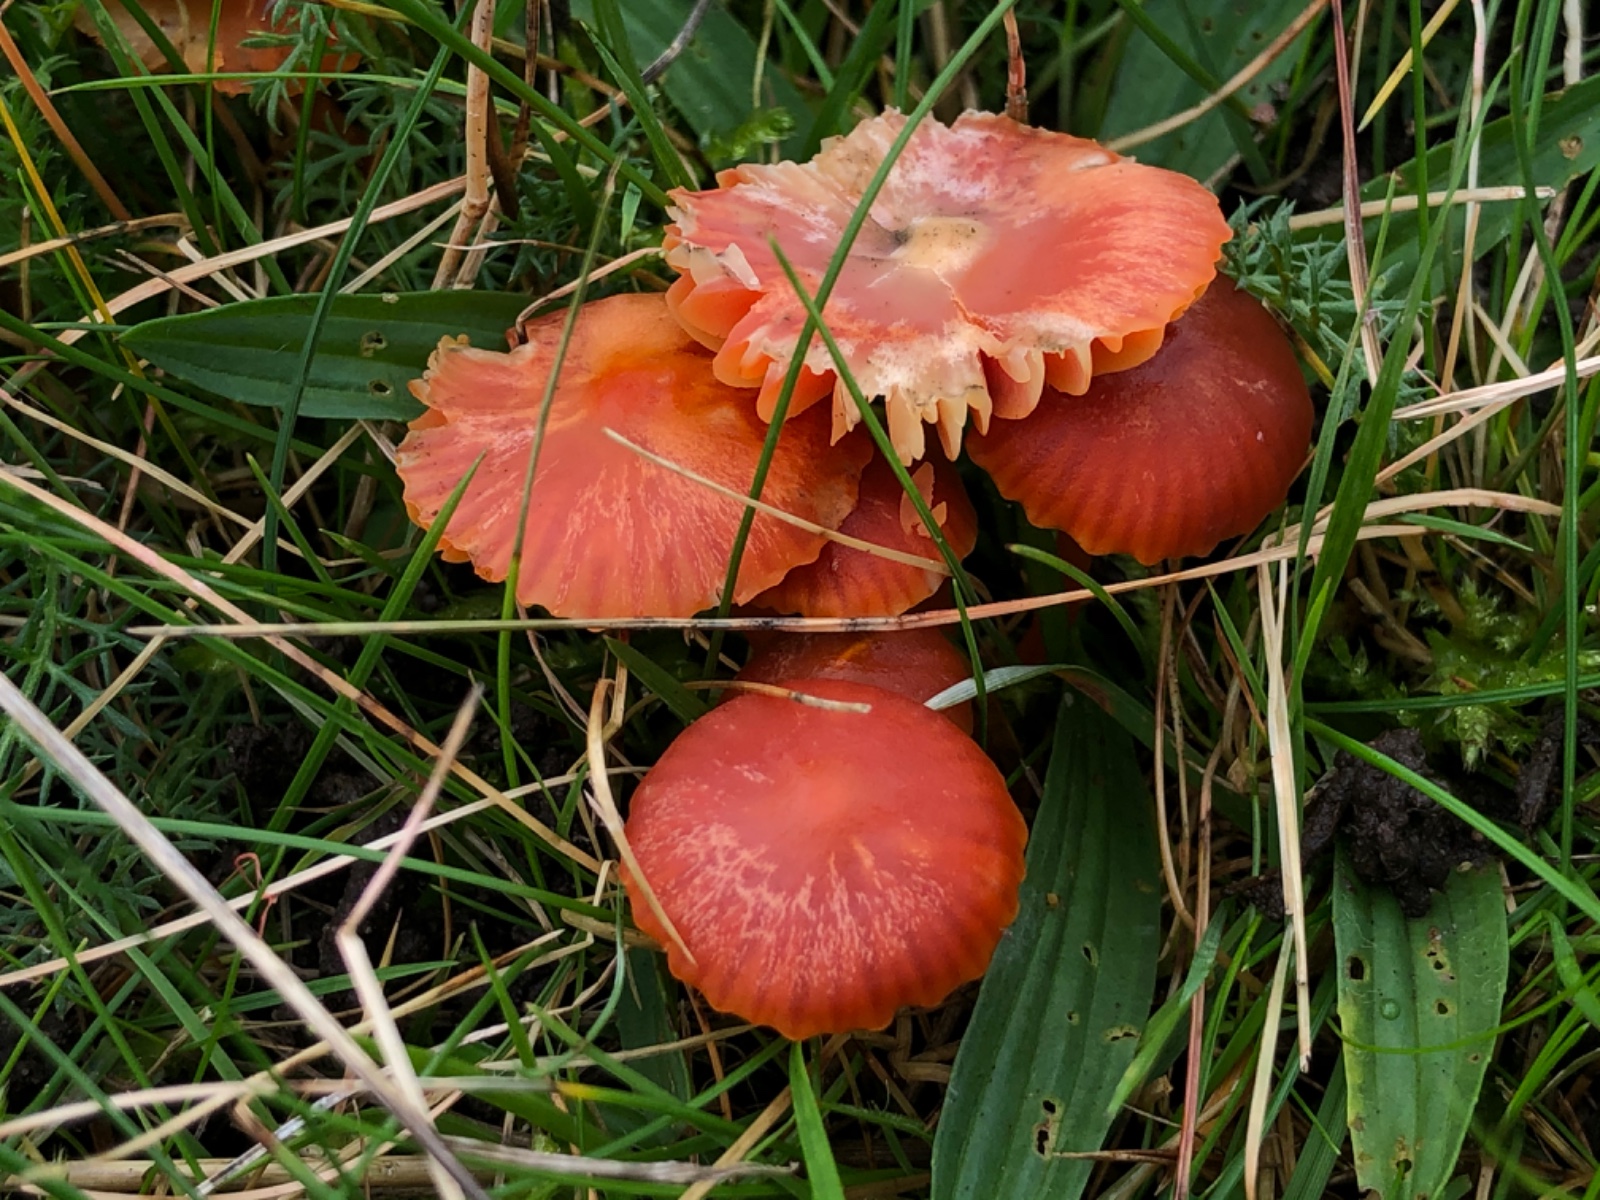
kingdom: Fungi
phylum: Basidiomycota
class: Agaricomycetes
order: Agaricales
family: Hygrophoraceae
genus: Gliophorus
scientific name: Gliophorus europerplexus
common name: Butterscotch waxcap
